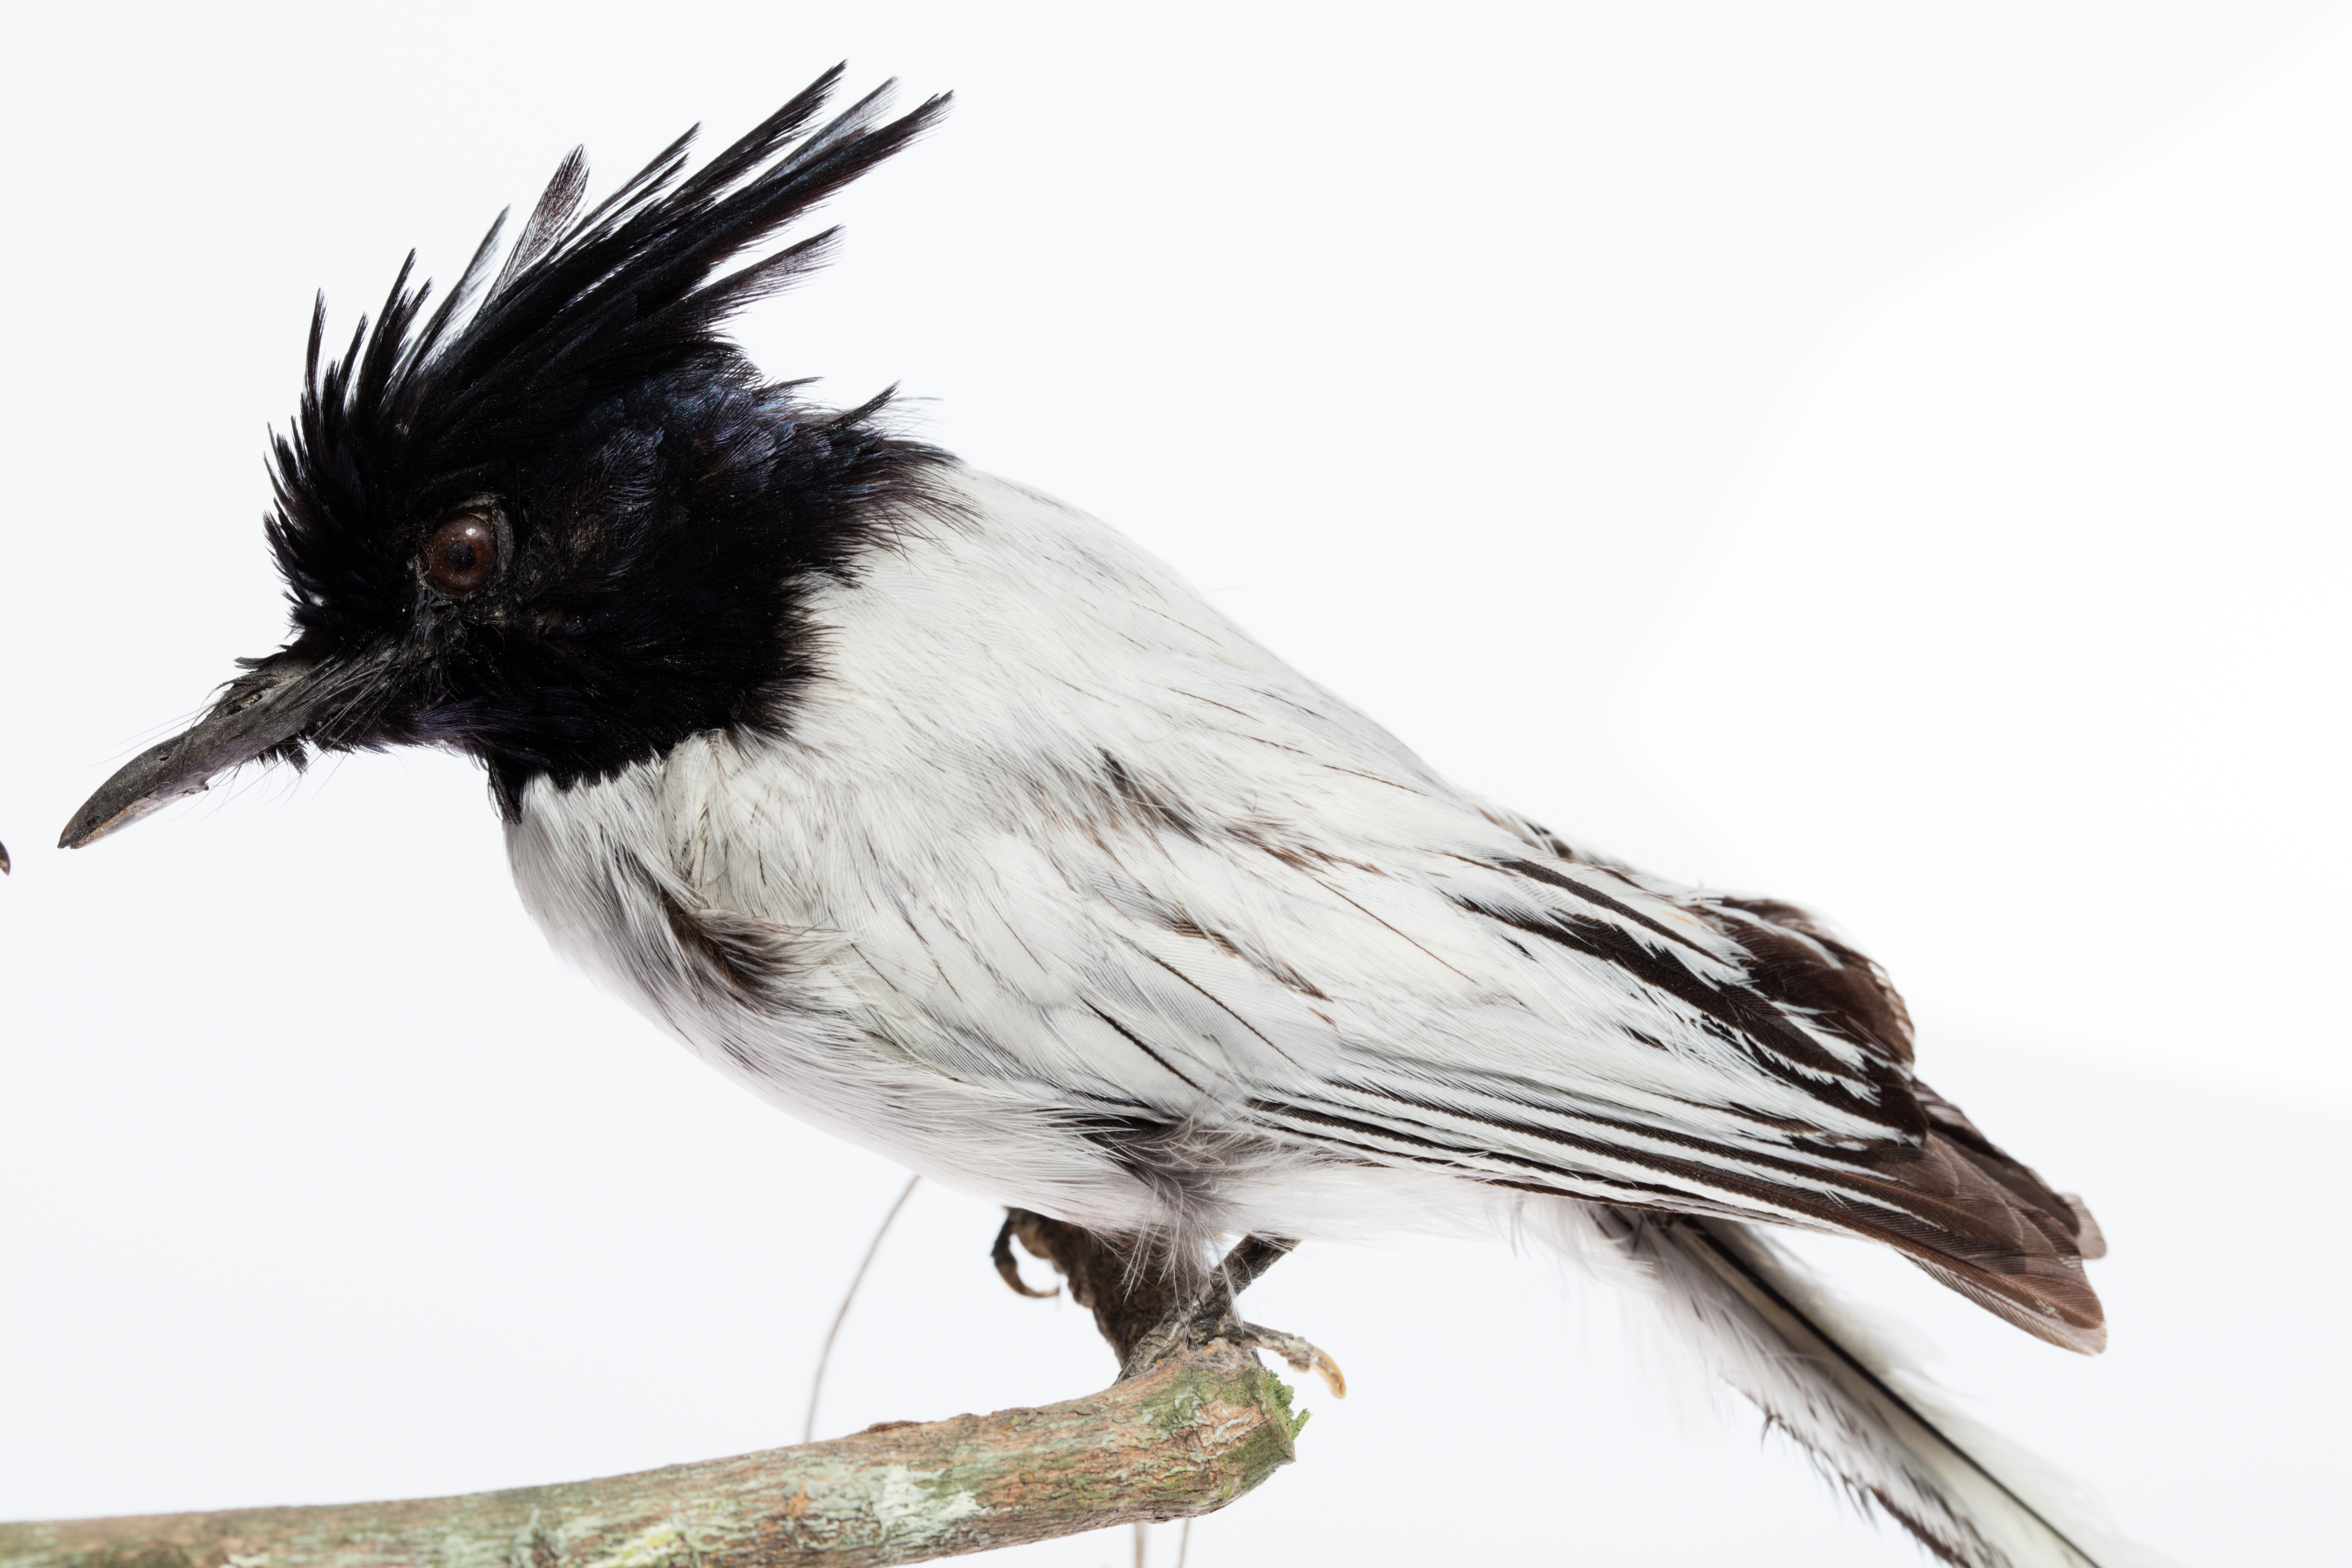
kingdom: Animalia
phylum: Chordata
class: Aves
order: Passeriformes
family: Monarchidae
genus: Terpsiphone
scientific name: Terpsiphone paradisi
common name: Indian paradise flycatcher
